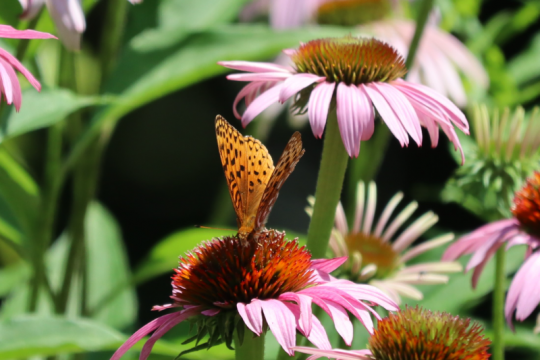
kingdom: Animalia
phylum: Arthropoda
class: Insecta
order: Lepidoptera
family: Nymphalidae
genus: Speyeria
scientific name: Speyeria aphrodite
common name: Aphrodite Fritillary
